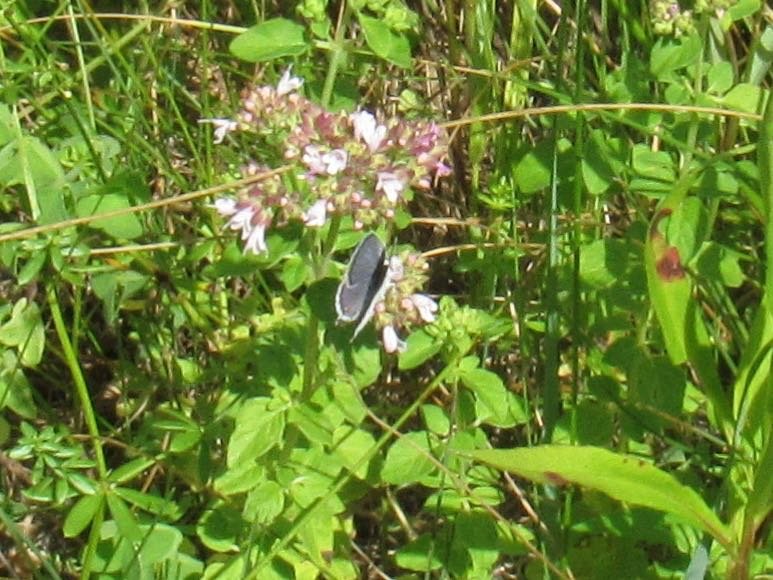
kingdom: Animalia
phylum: Arthropoda
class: Insecta
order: Lepidoptera
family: Lycaenidae
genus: Elkalyce
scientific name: Elkalyce comyntas
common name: Eastern Tailed-Blue
